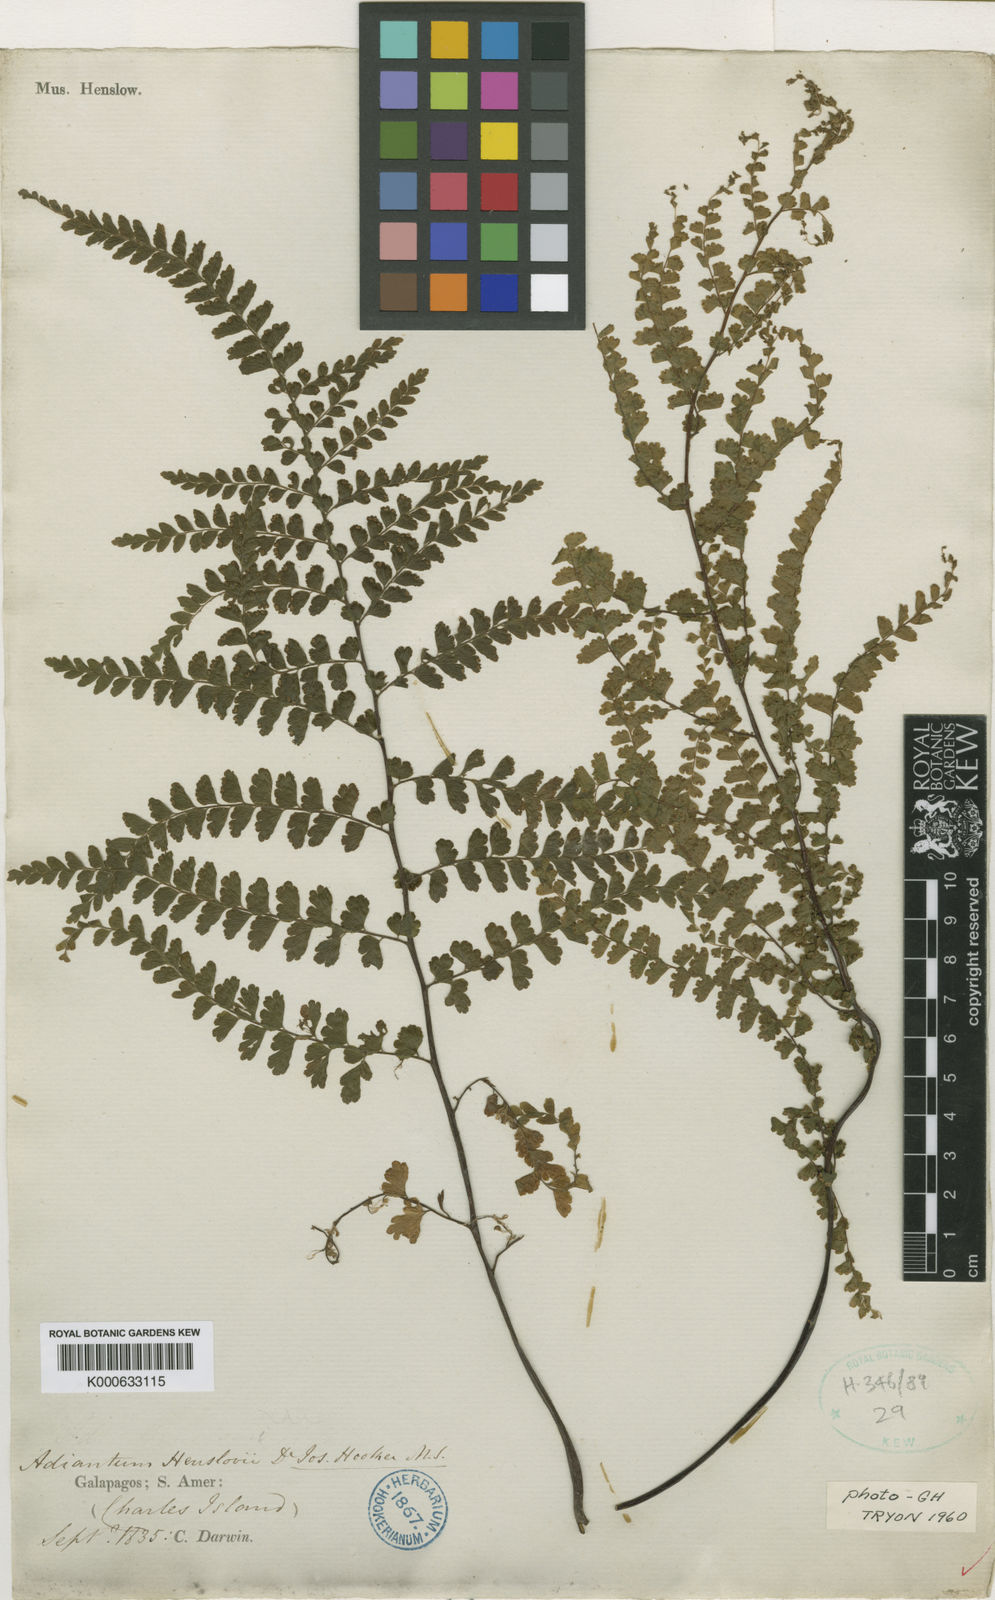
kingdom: Plantae
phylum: Tracheophyta
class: Polypodiopsida
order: Polypodiales
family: Pteridaceae
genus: Adiantum
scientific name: Adiantum henslovianum
